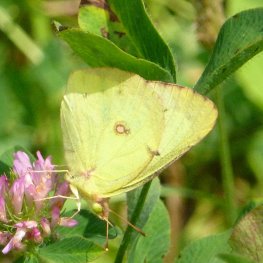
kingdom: Animalia
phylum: Arthropoda
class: Insecta
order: Lepidoptera
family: Pieridae
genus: Colias
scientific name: Colias philodice
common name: Clouded Sulphur
